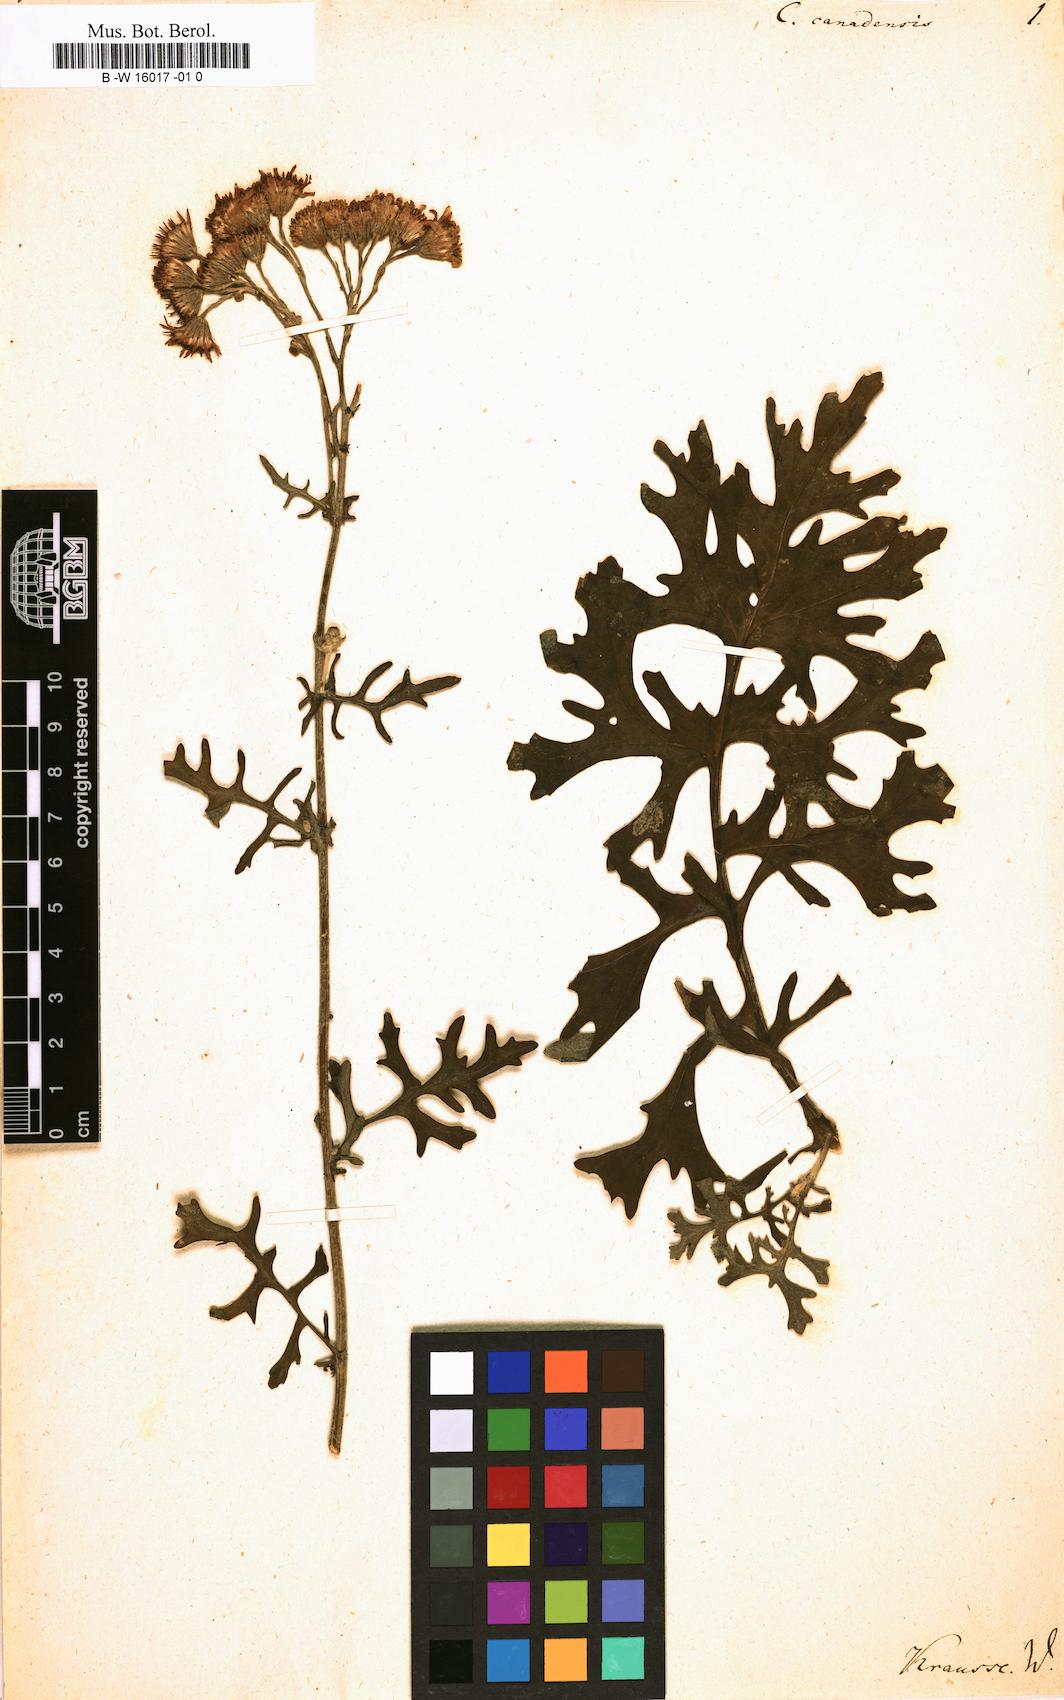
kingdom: Plantae
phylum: Tracheophyta
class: Magnoliopsida
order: Asterales
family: Asteraceae
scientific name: Asteraceae
